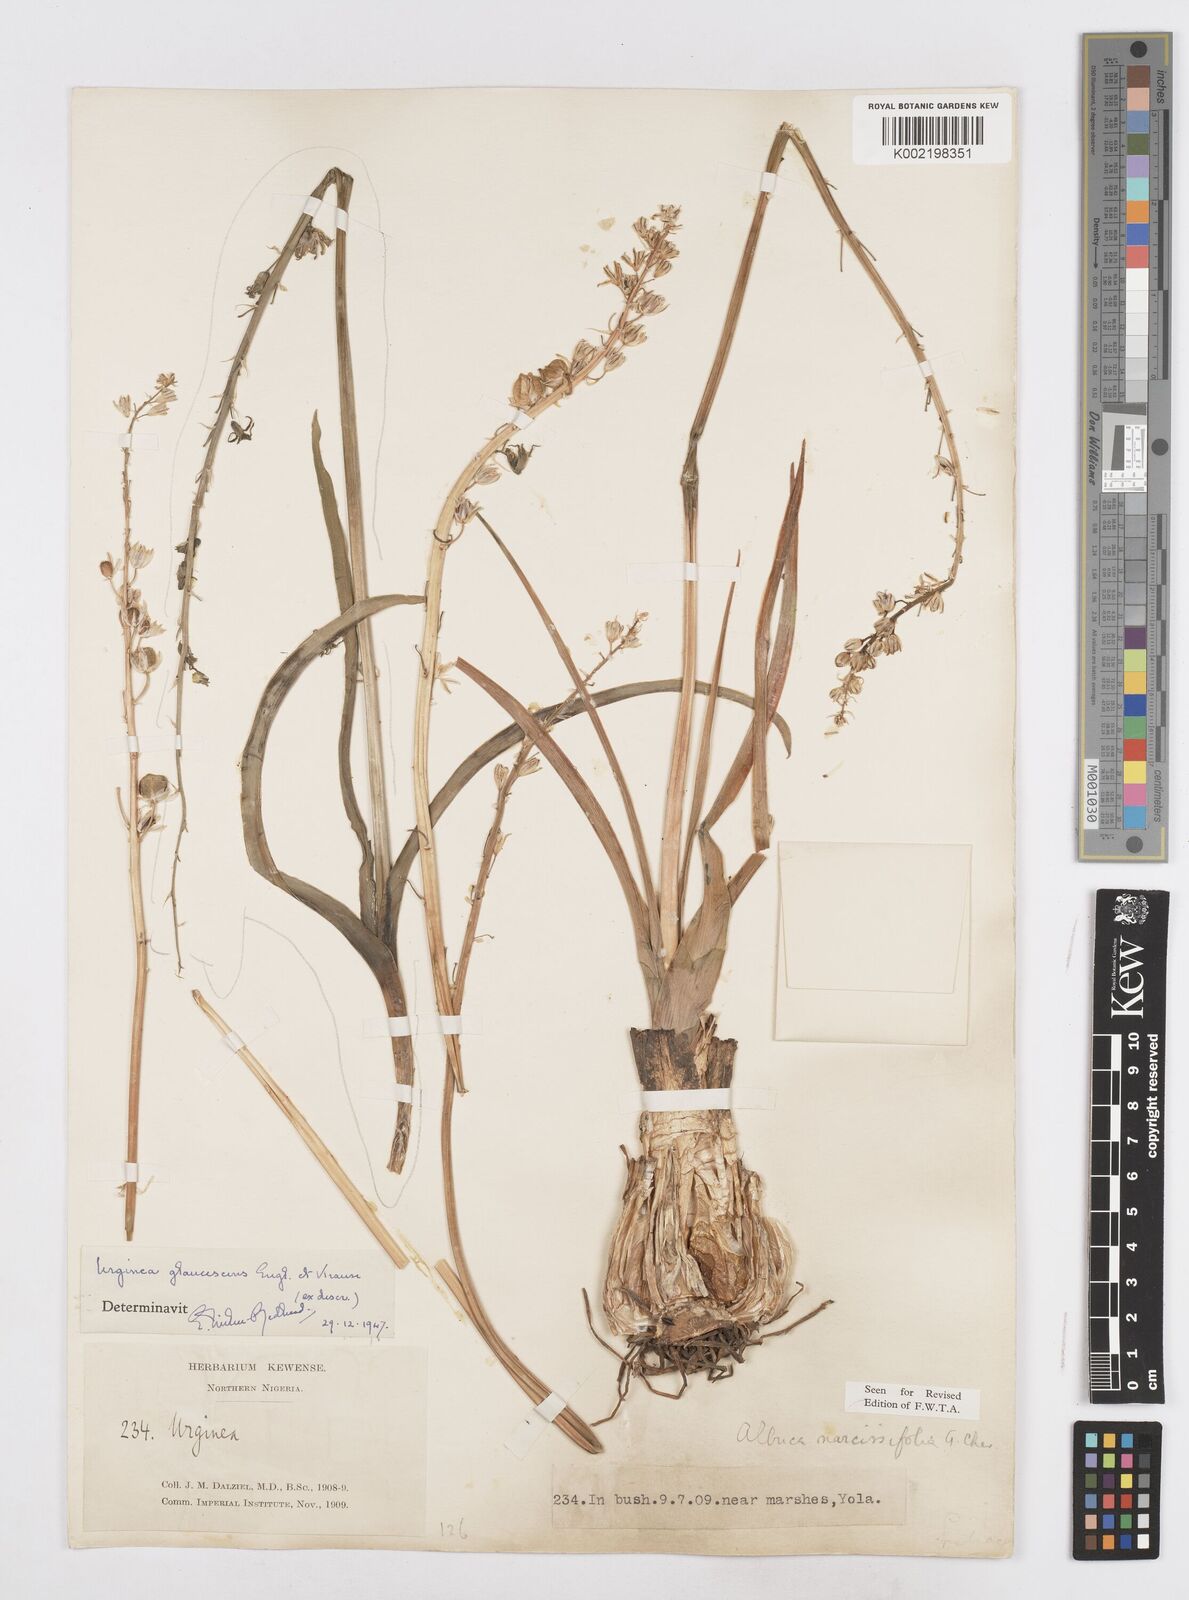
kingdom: Plantae
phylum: Tracheophyta
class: Liliopsida
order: Asparagales
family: Asparagaceae
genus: Ledebouria
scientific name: Ledebouria ensifolia
